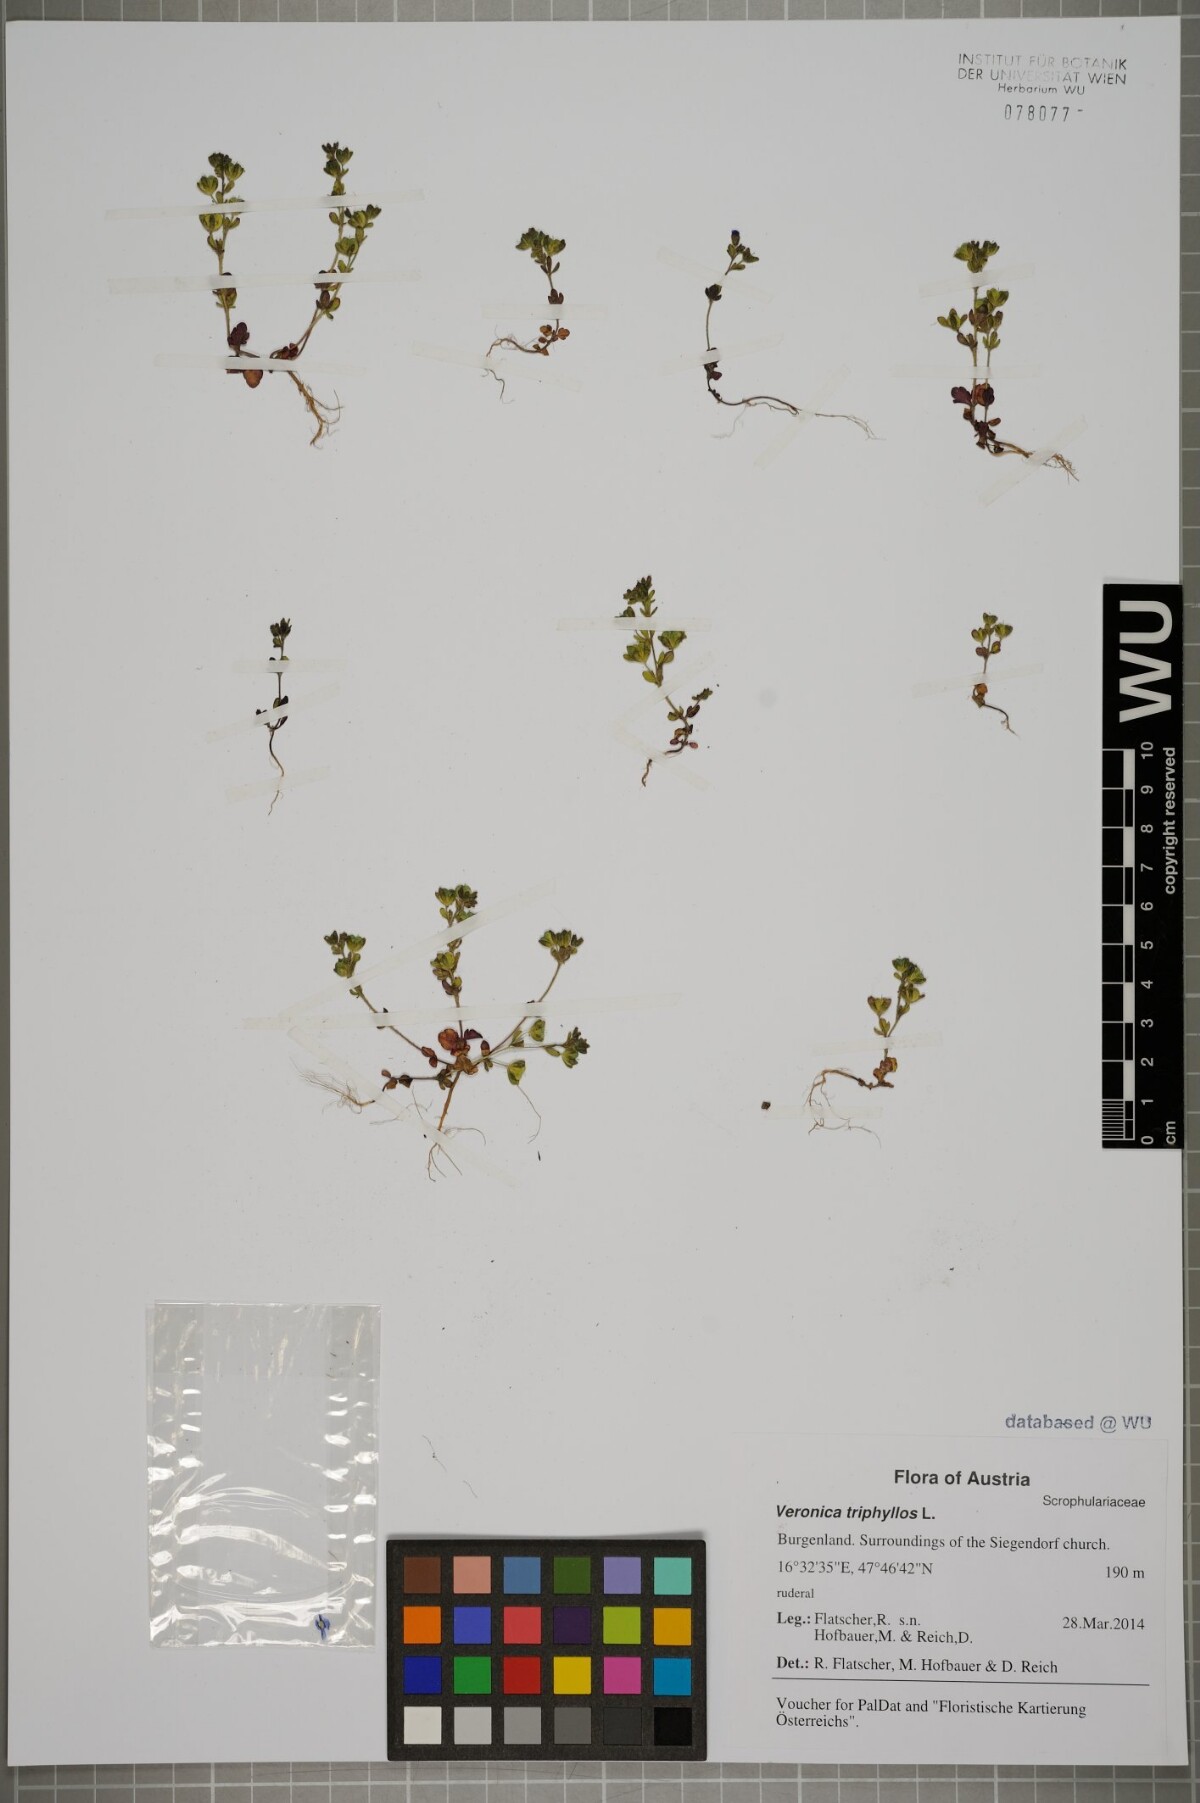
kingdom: Plantae
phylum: Tracheophyta
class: Magnoliopsida
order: Lamiales
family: Plantaginaceae
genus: Veronica
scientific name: Veronica triphyllos
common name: Fingered speedwell
